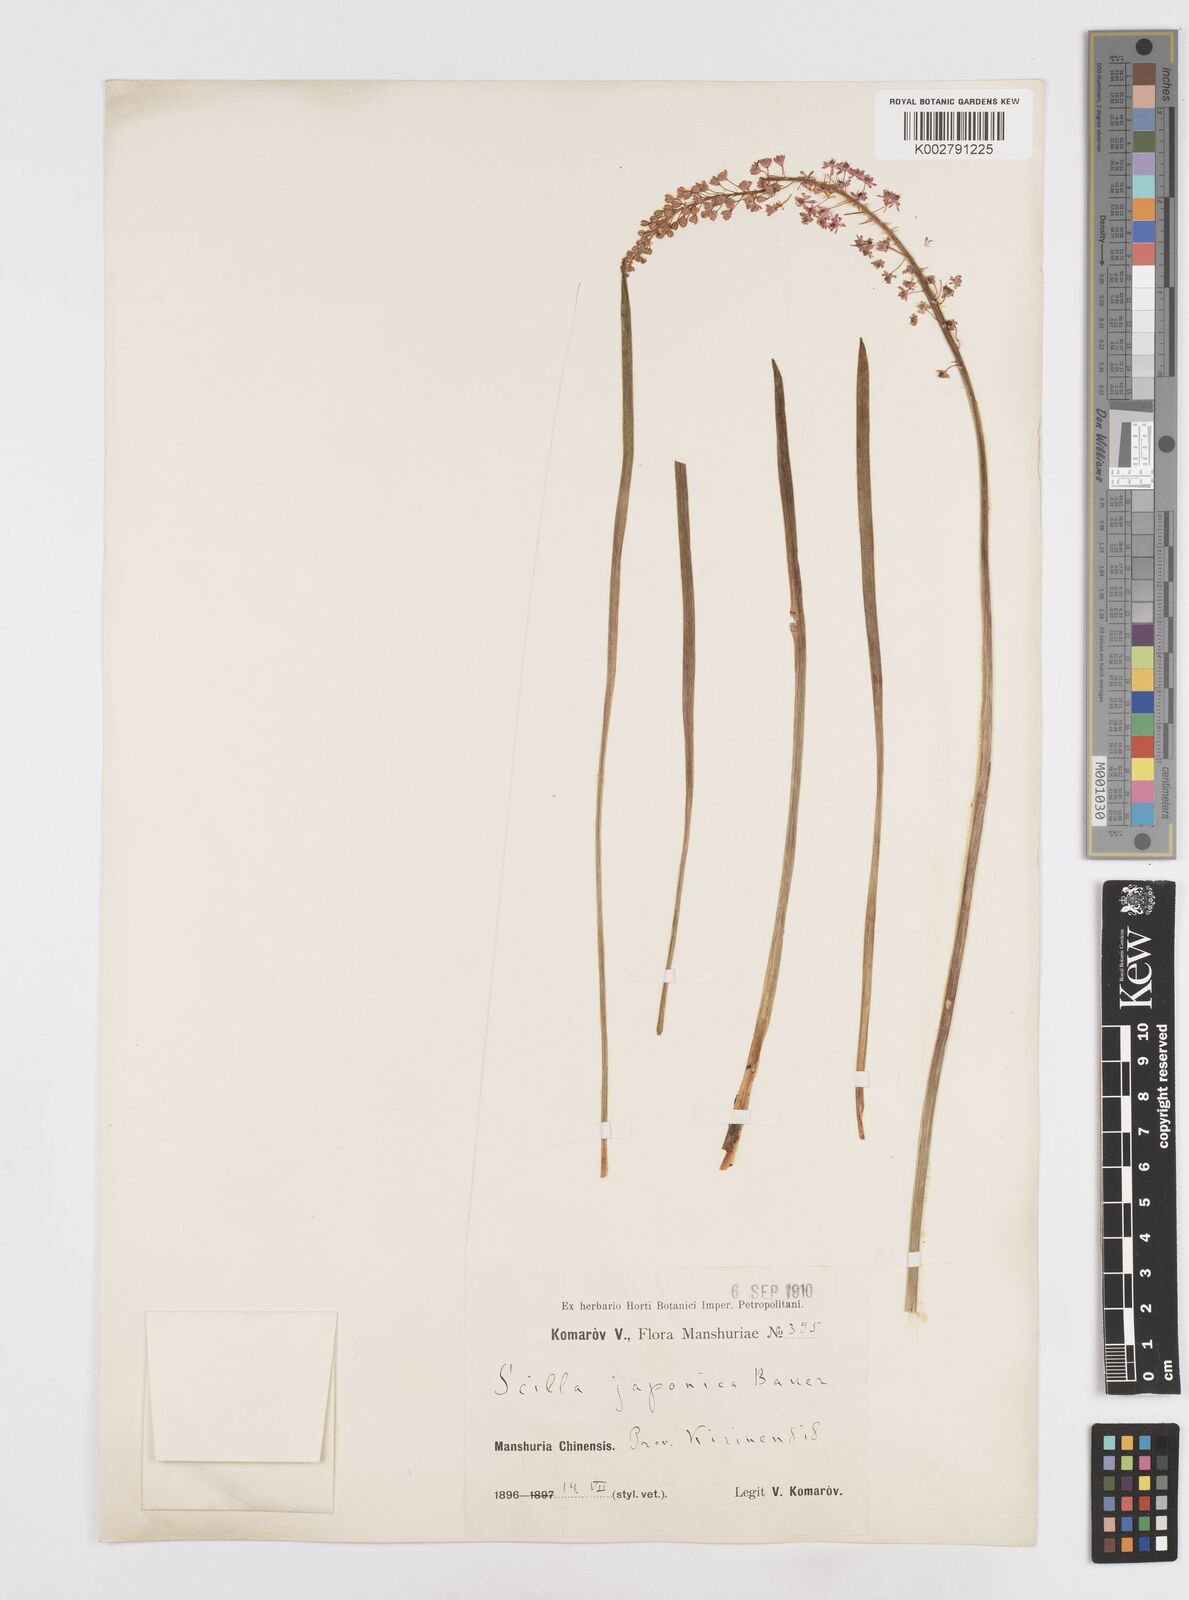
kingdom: Plantae
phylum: Tracheophyta
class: Liliopsida
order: Liliales
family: Melanthiaceae
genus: Helonias
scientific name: Helonias breviscapa
